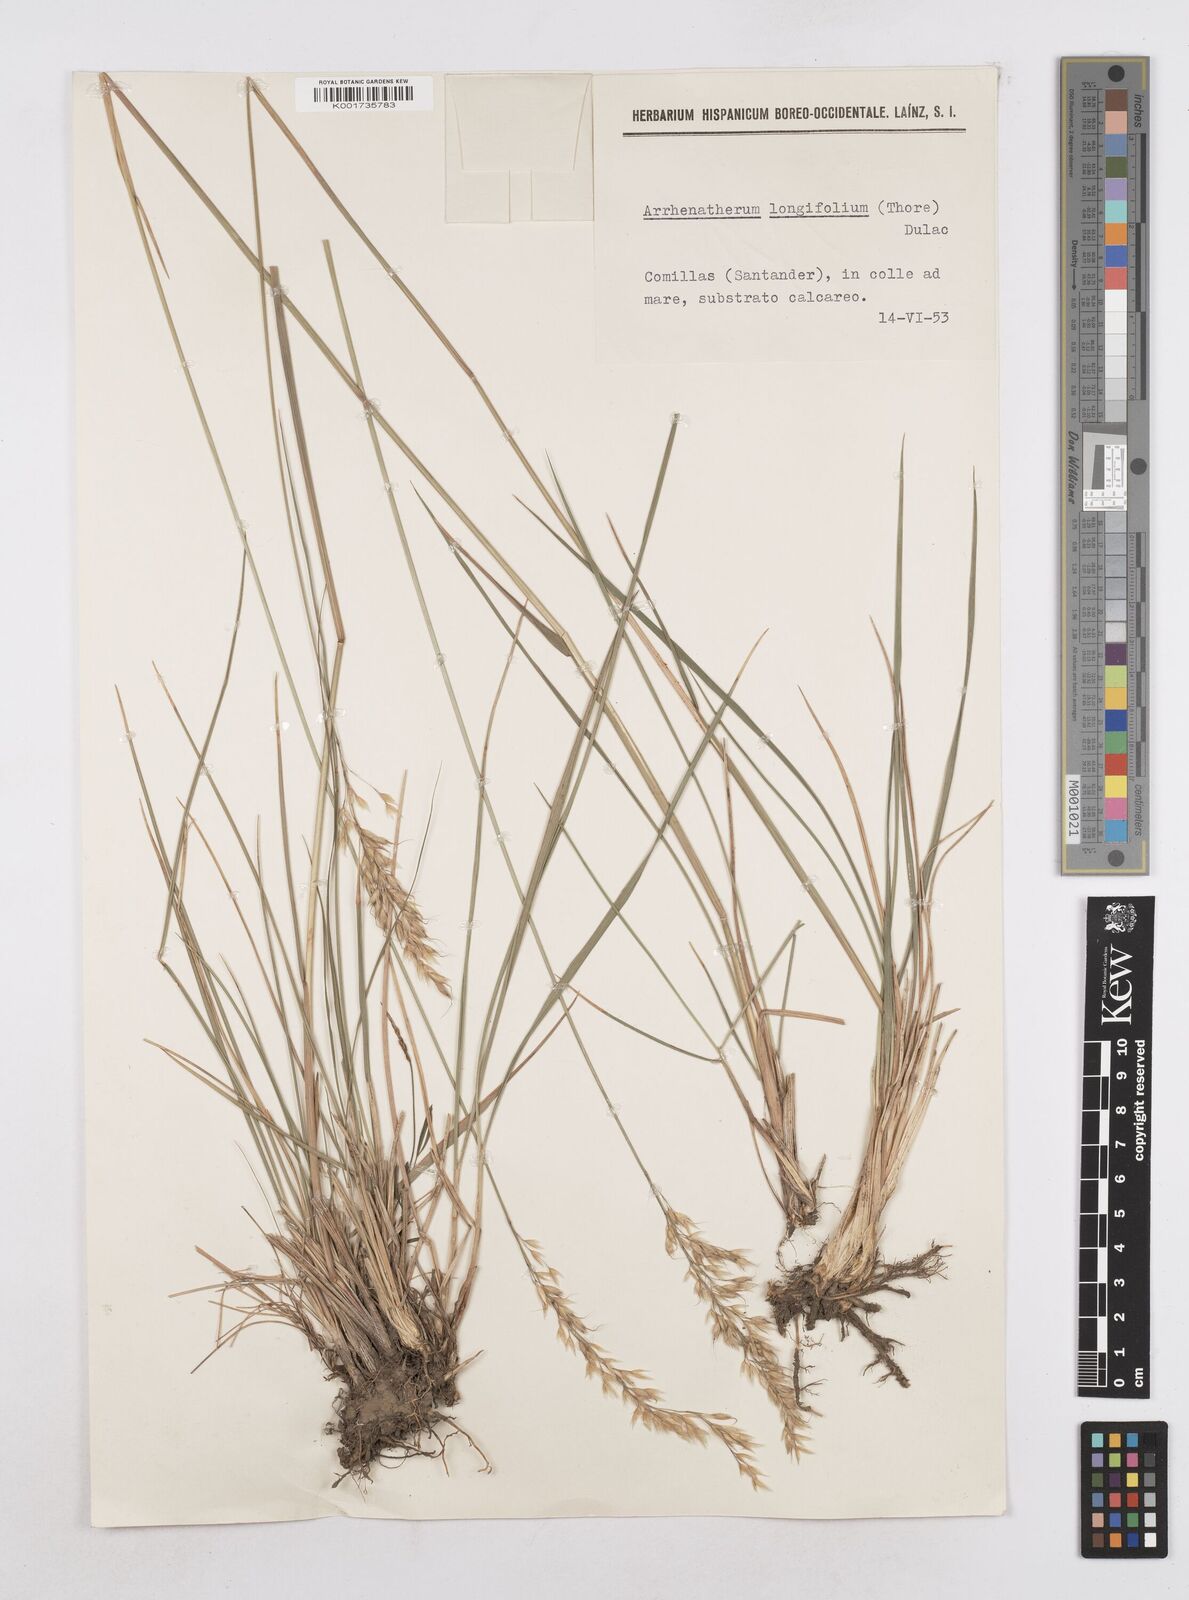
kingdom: Plantae
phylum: Tracheophyta
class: Liliopsida
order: Poales
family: Poaceae
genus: Arrhenatherum
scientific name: Arrhenatherum longifolium
